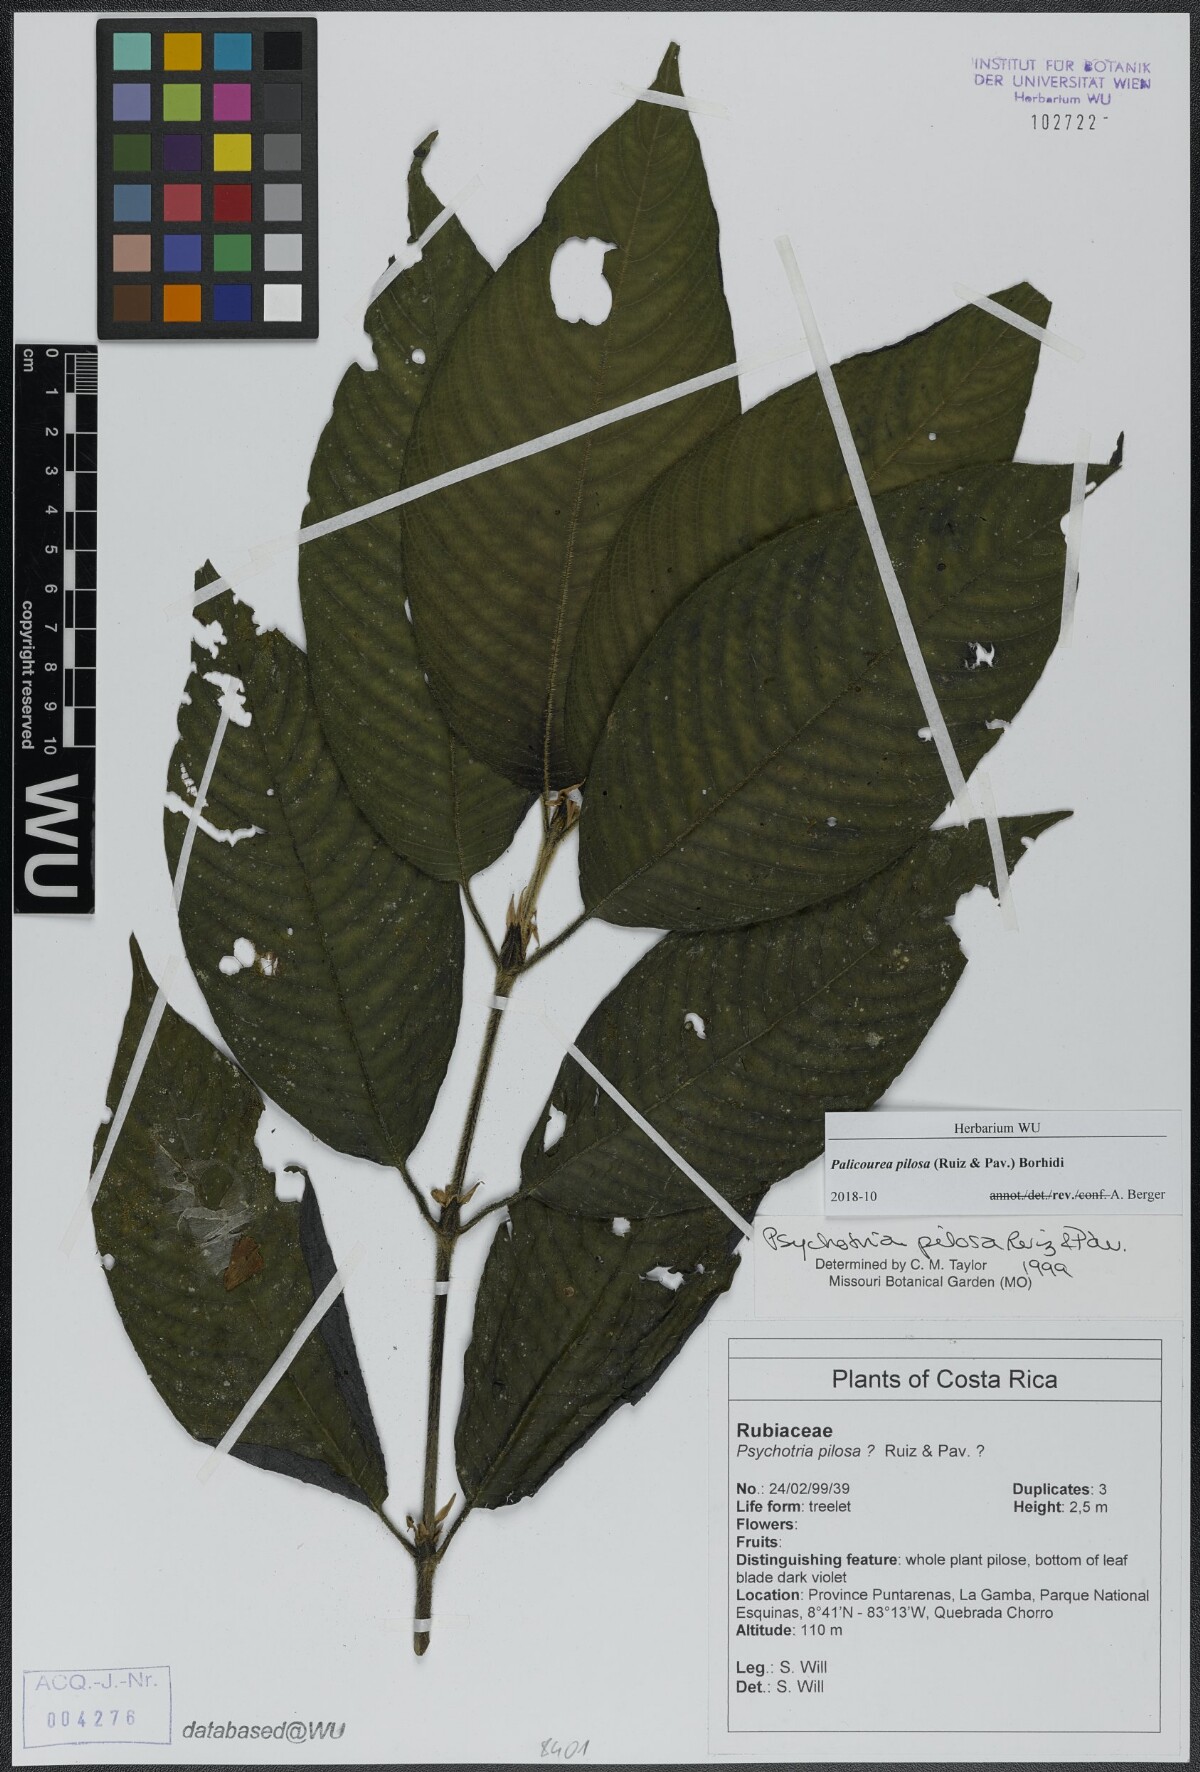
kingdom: Plantae
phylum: Tracheophyta
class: Magnoliopsida
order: Gentianales
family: Rubiaceae
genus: Palicourea
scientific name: Palicourea pilosa
